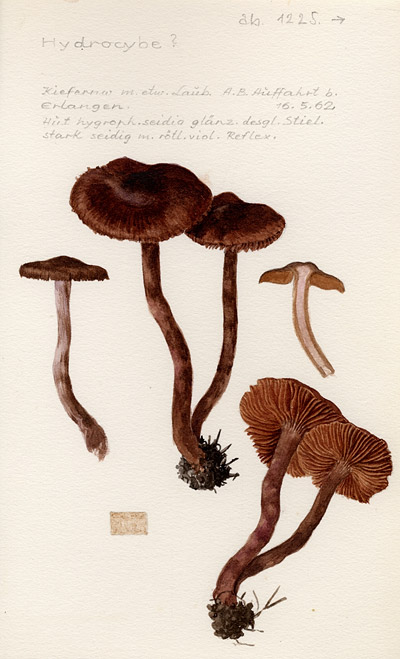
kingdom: Fungi
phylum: Basidiomycota
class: Agaricomycetes
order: Agaricales
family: Cortinariaceae
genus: Cortinarius
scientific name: Cortinarius
